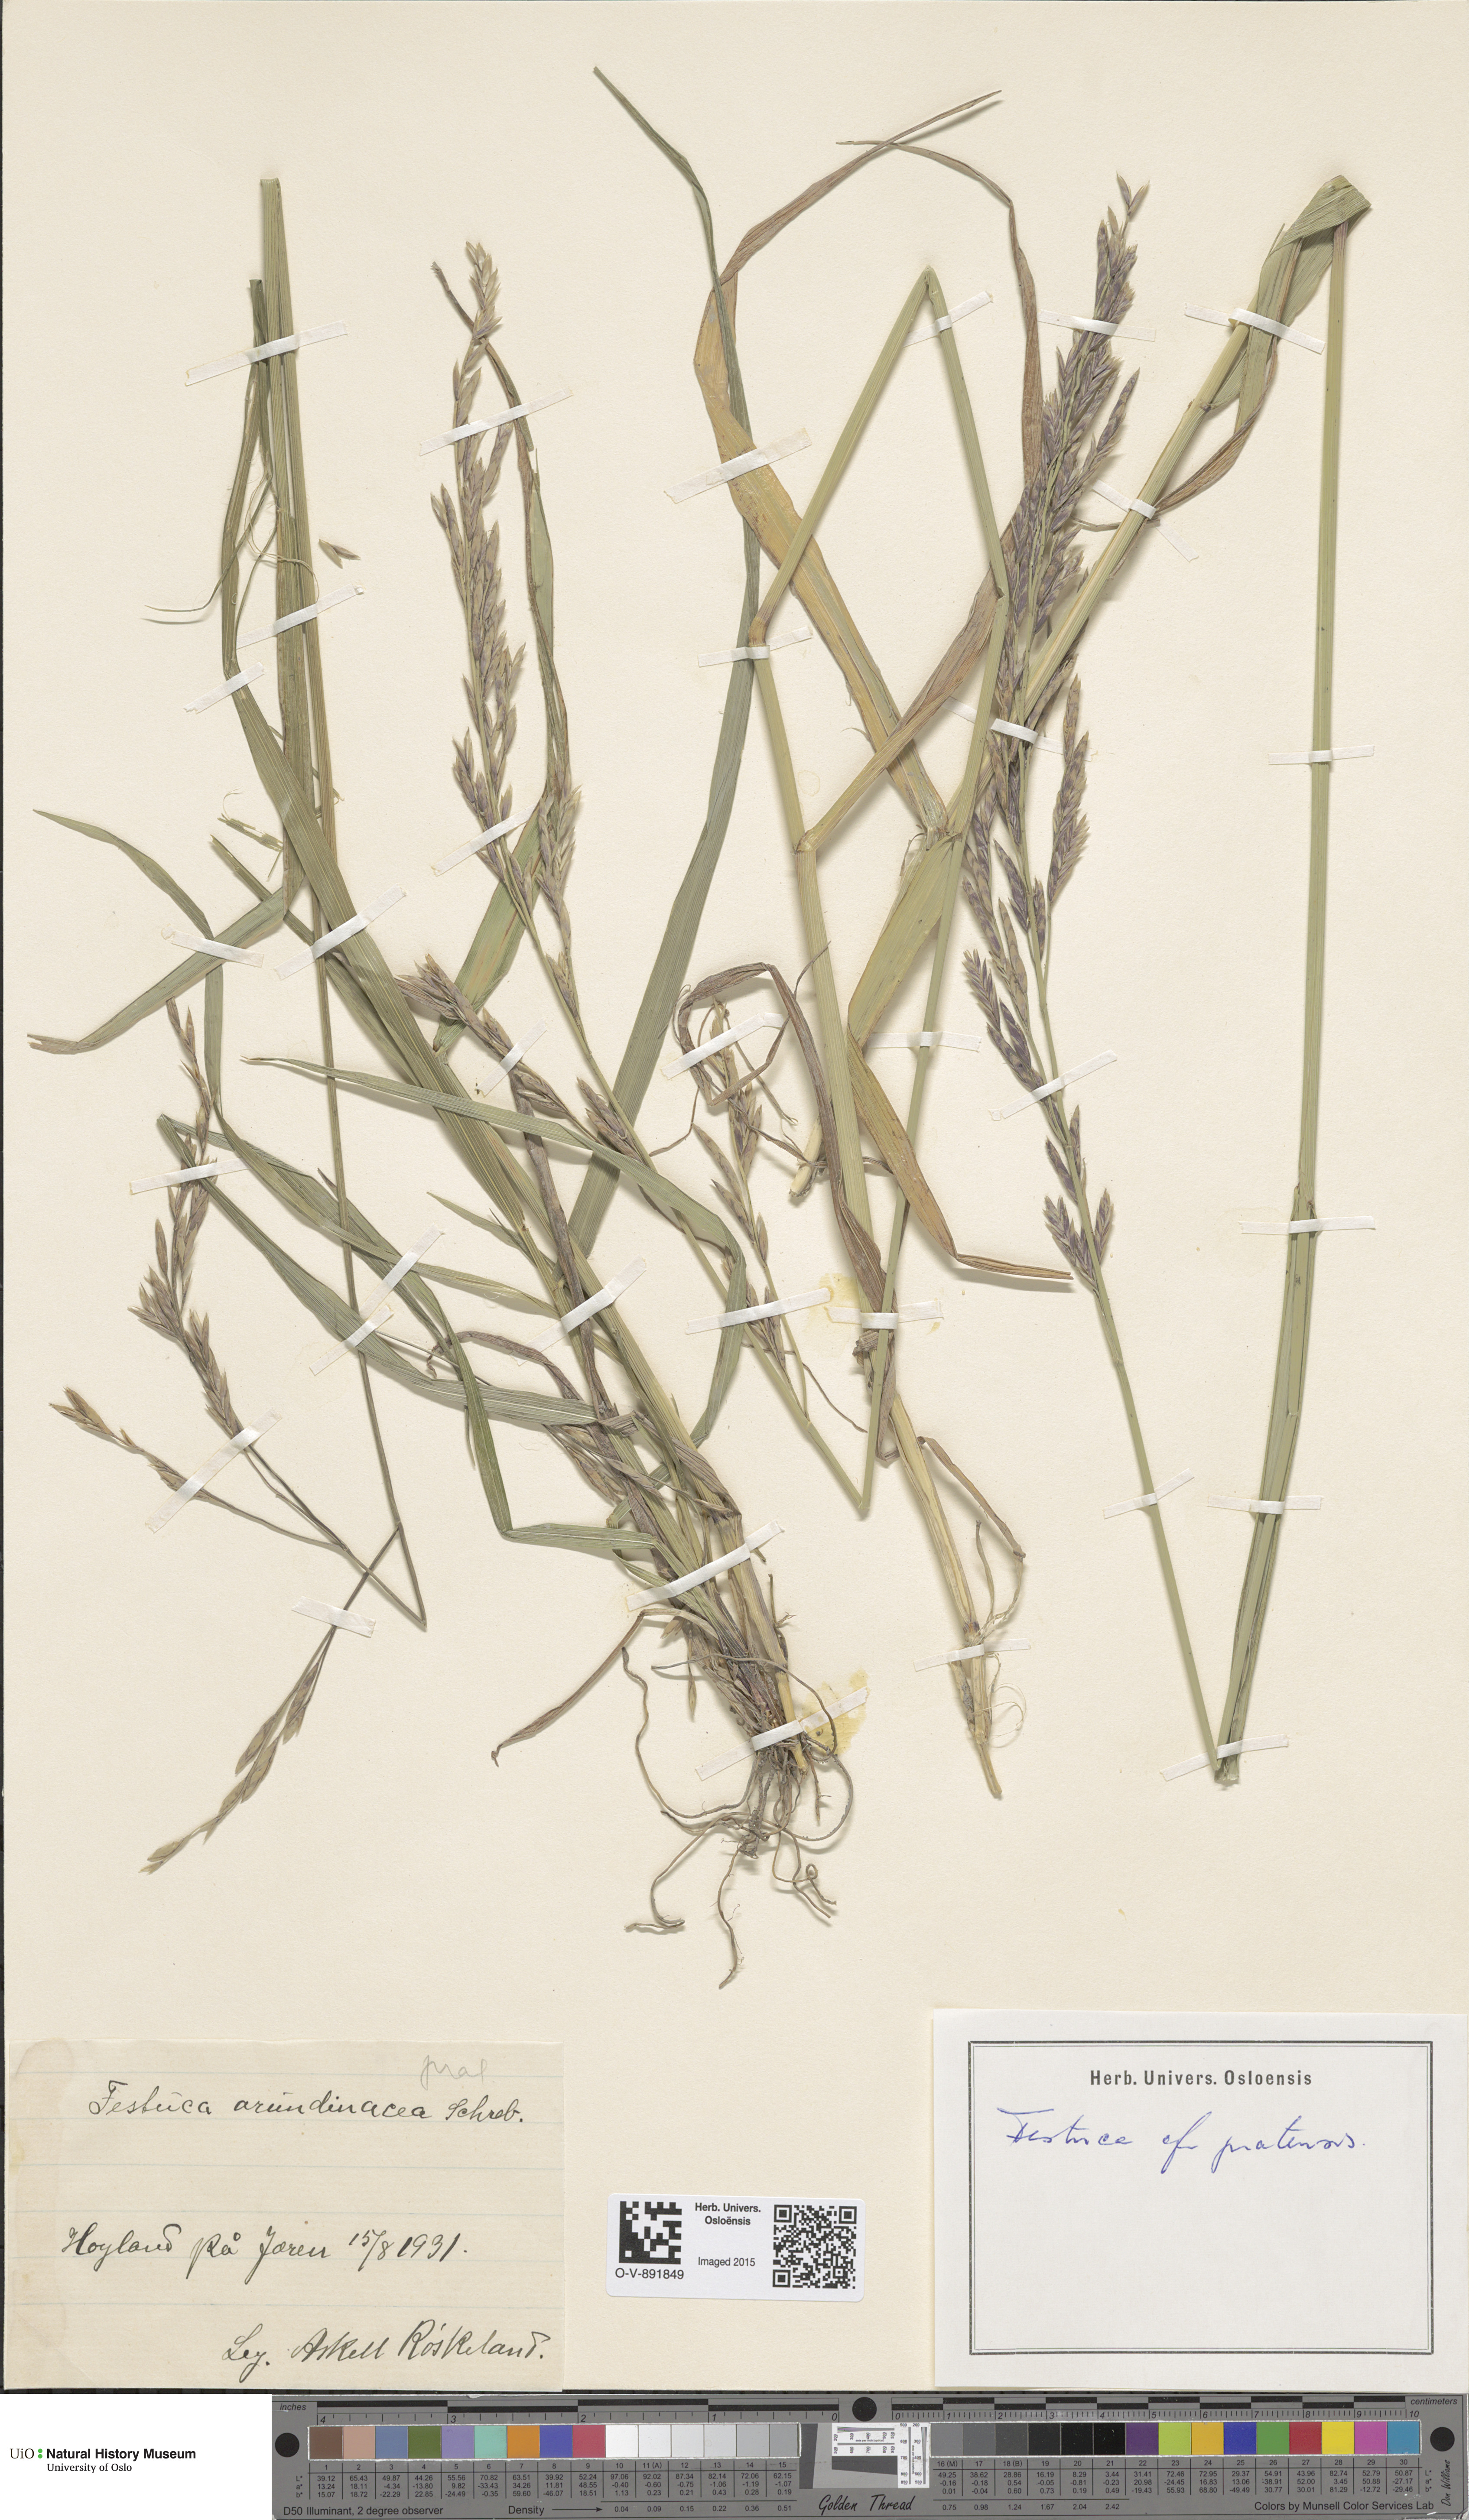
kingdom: Plantae
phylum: Tracheophyta
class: Liliopsida
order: Poales
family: Poaceae
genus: Lolium
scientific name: Lolium pratense
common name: Dover grass
